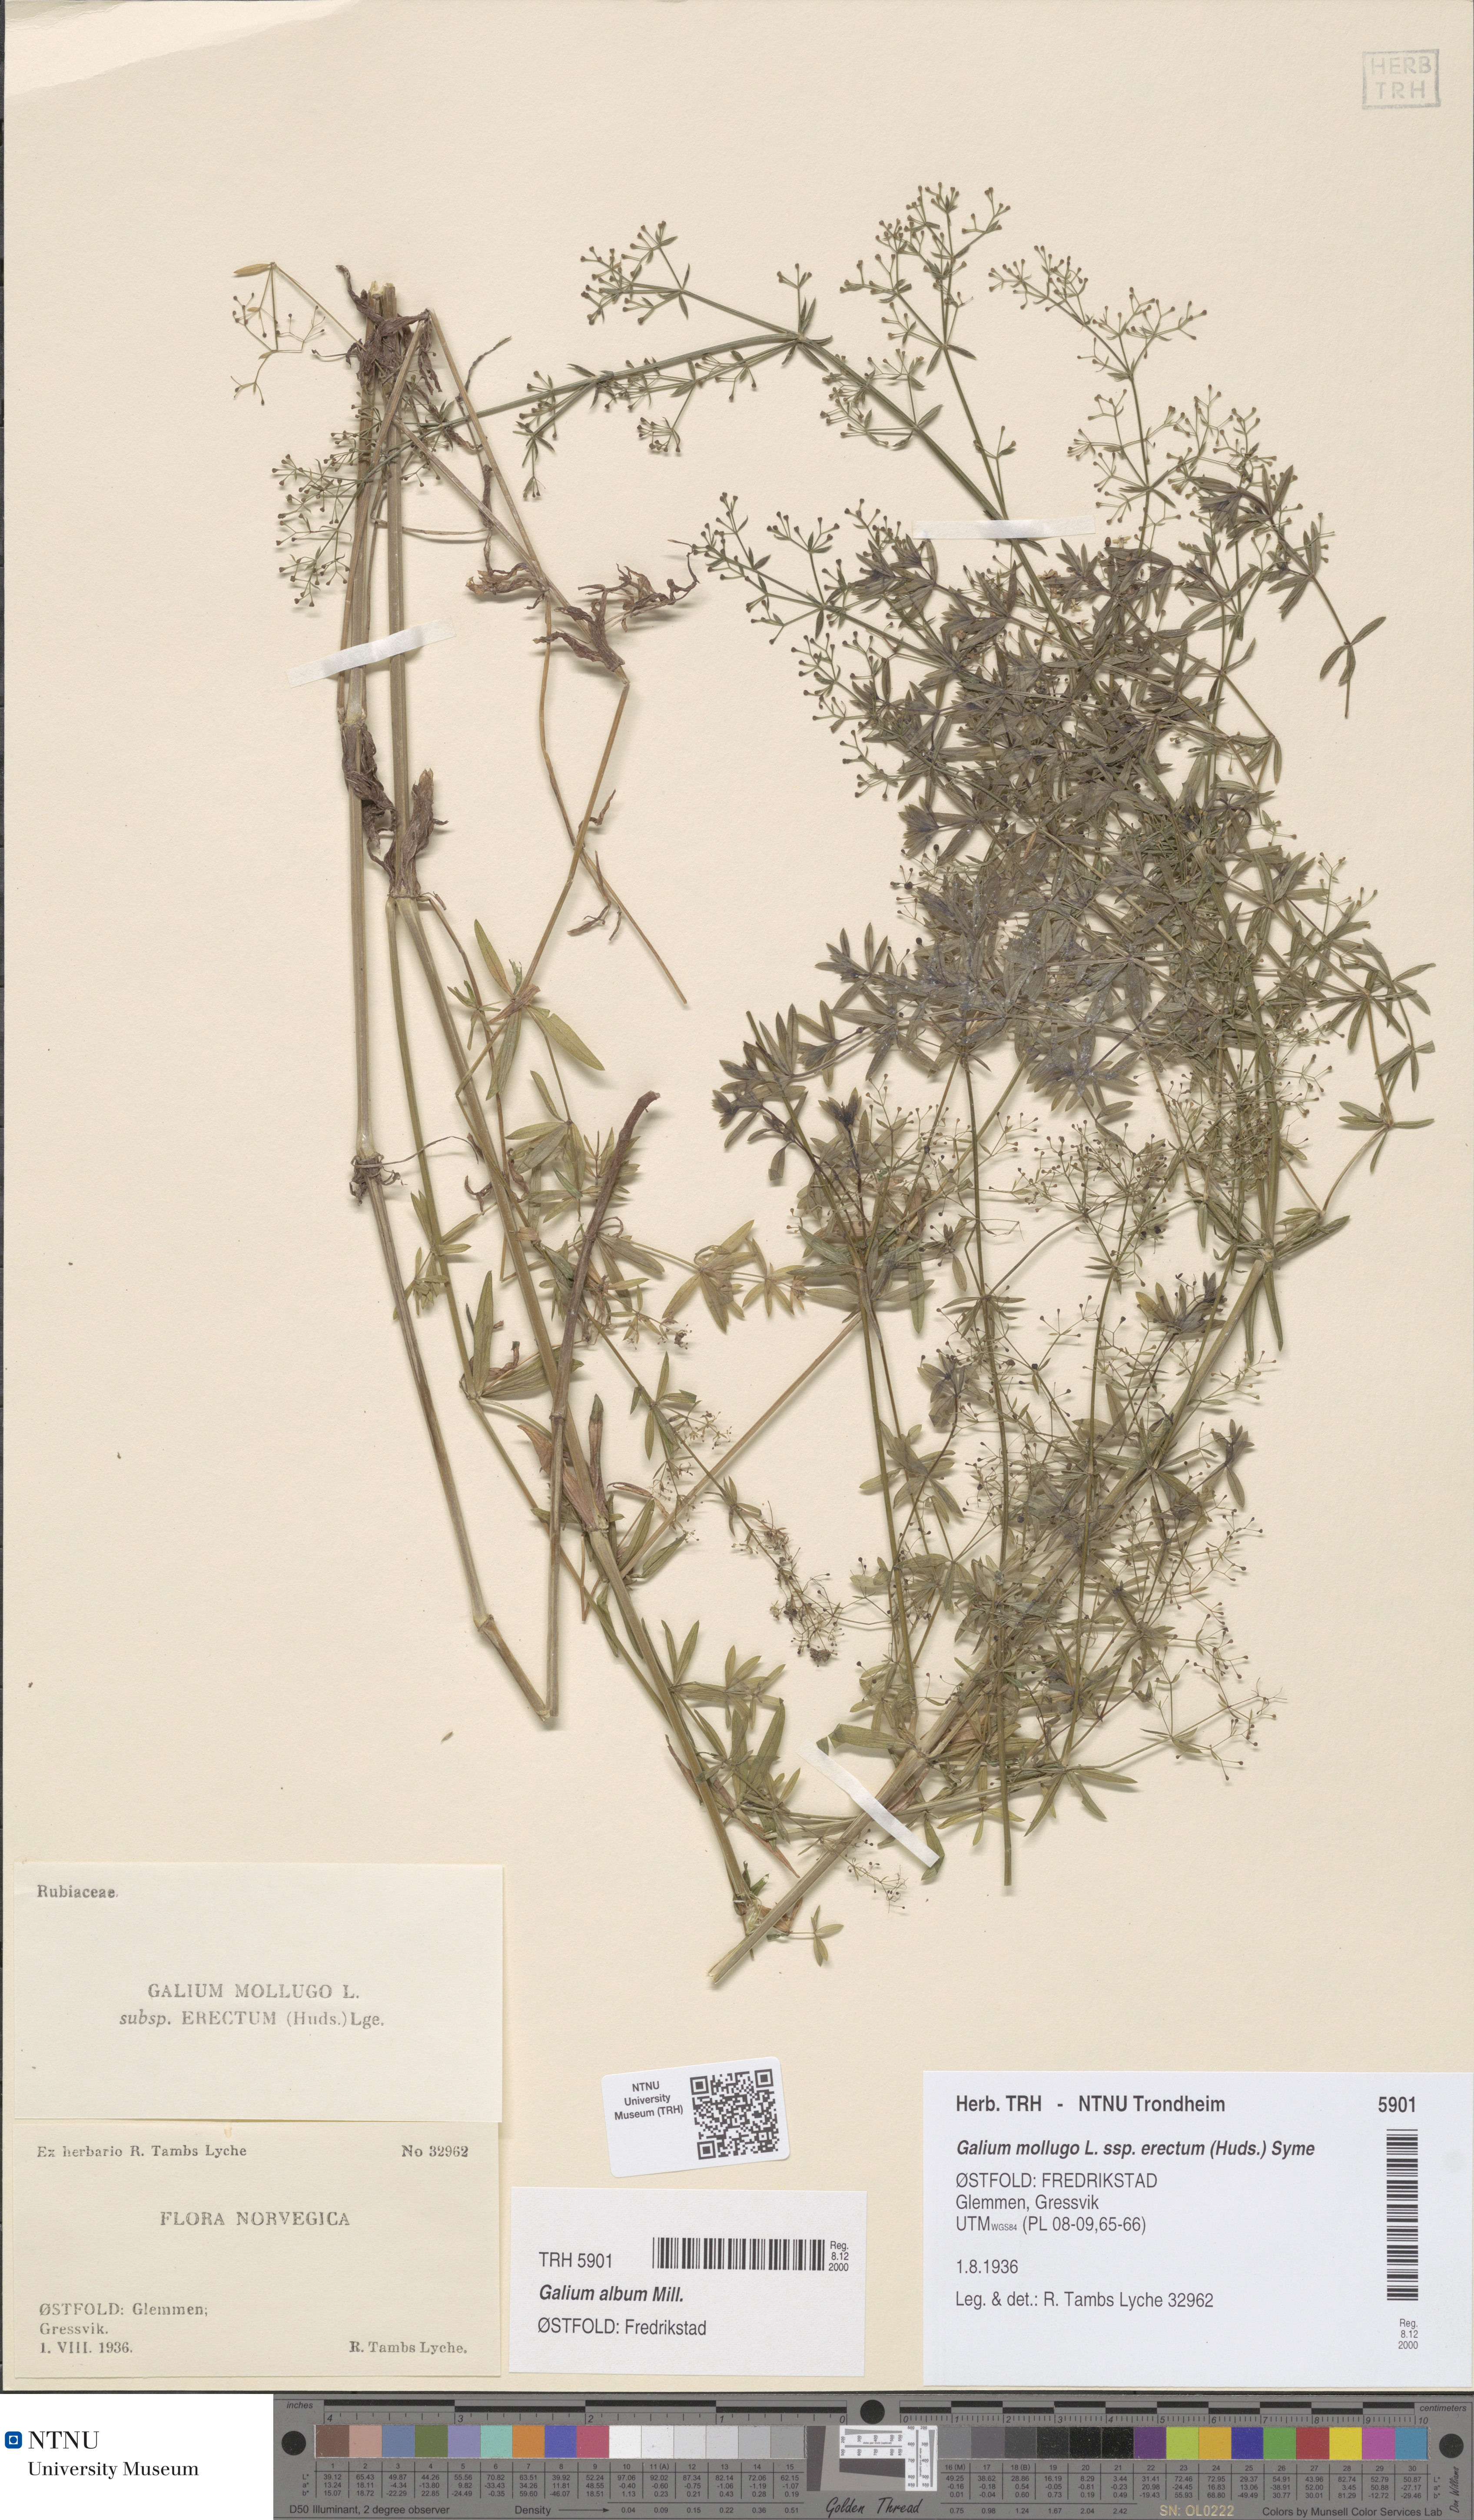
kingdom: Plantae
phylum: Tracheophyta
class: Magnoliopsida
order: Gentianales
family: Rubiaceae
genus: Galium
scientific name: Galium album
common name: White bedstraw
